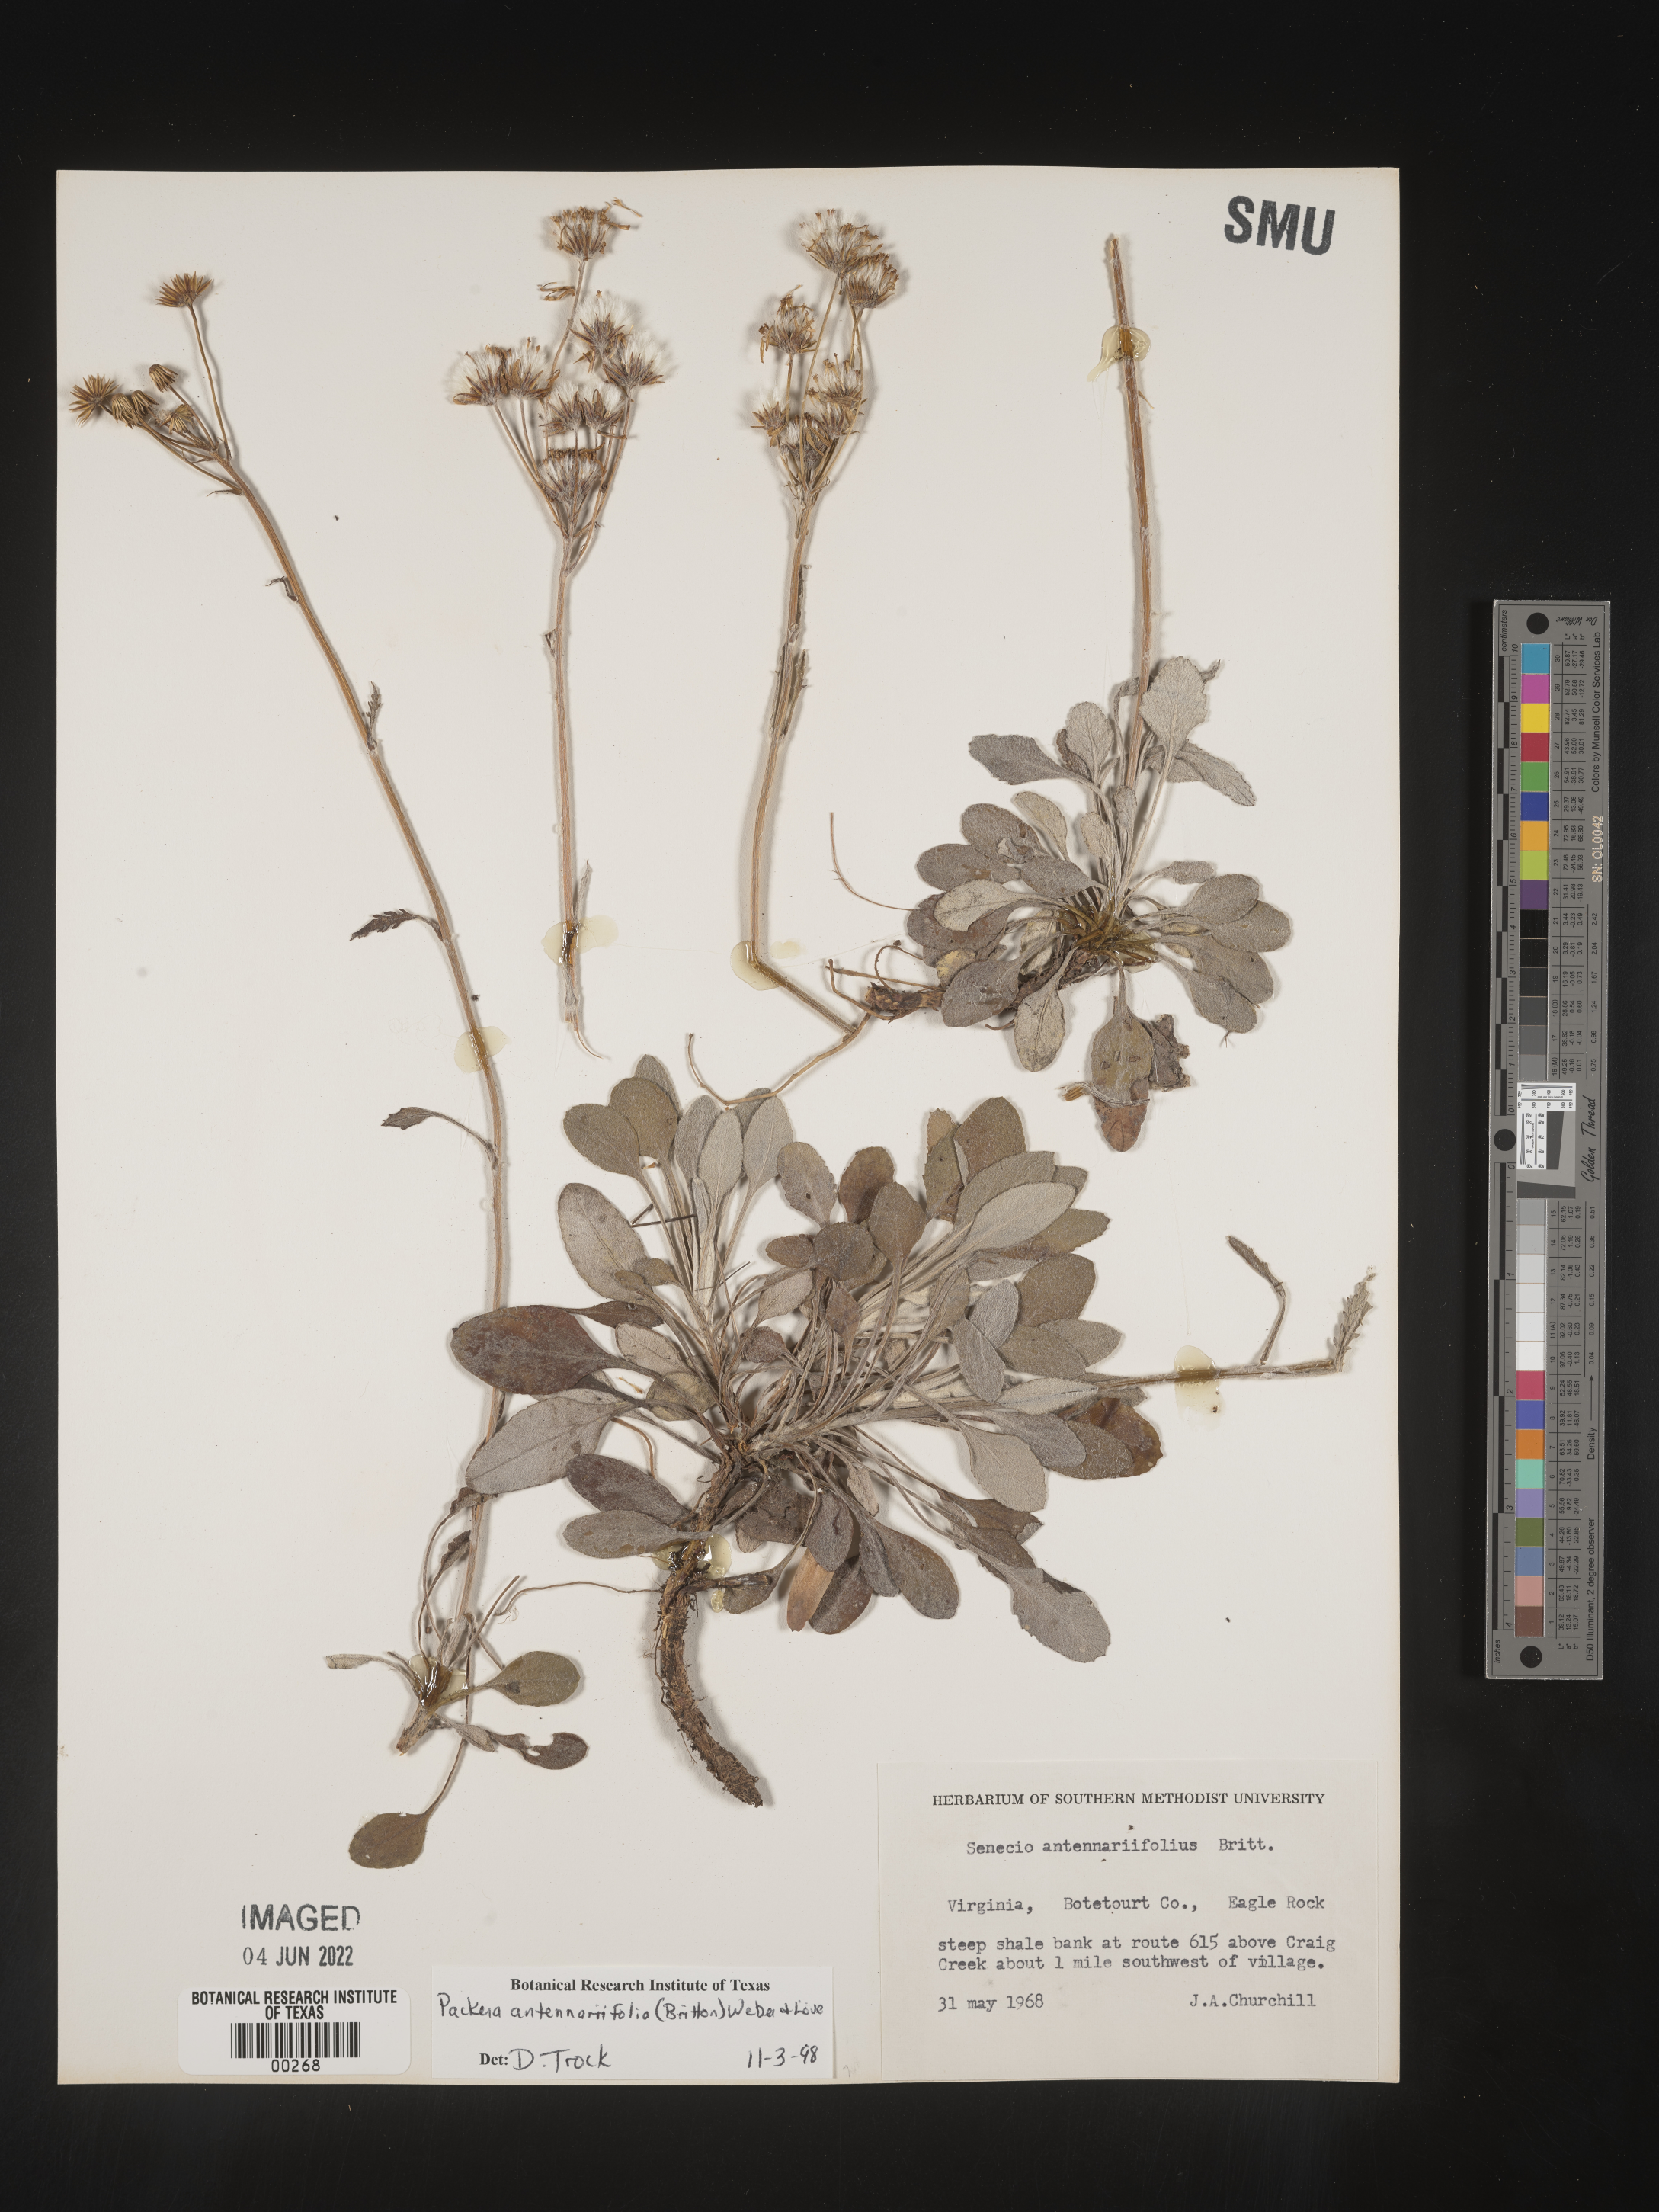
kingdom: Plantae
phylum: Tracheophyta
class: Magnoliopsida
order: Asterales
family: Asteraceae
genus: Packera
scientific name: Packera antennariifolia
